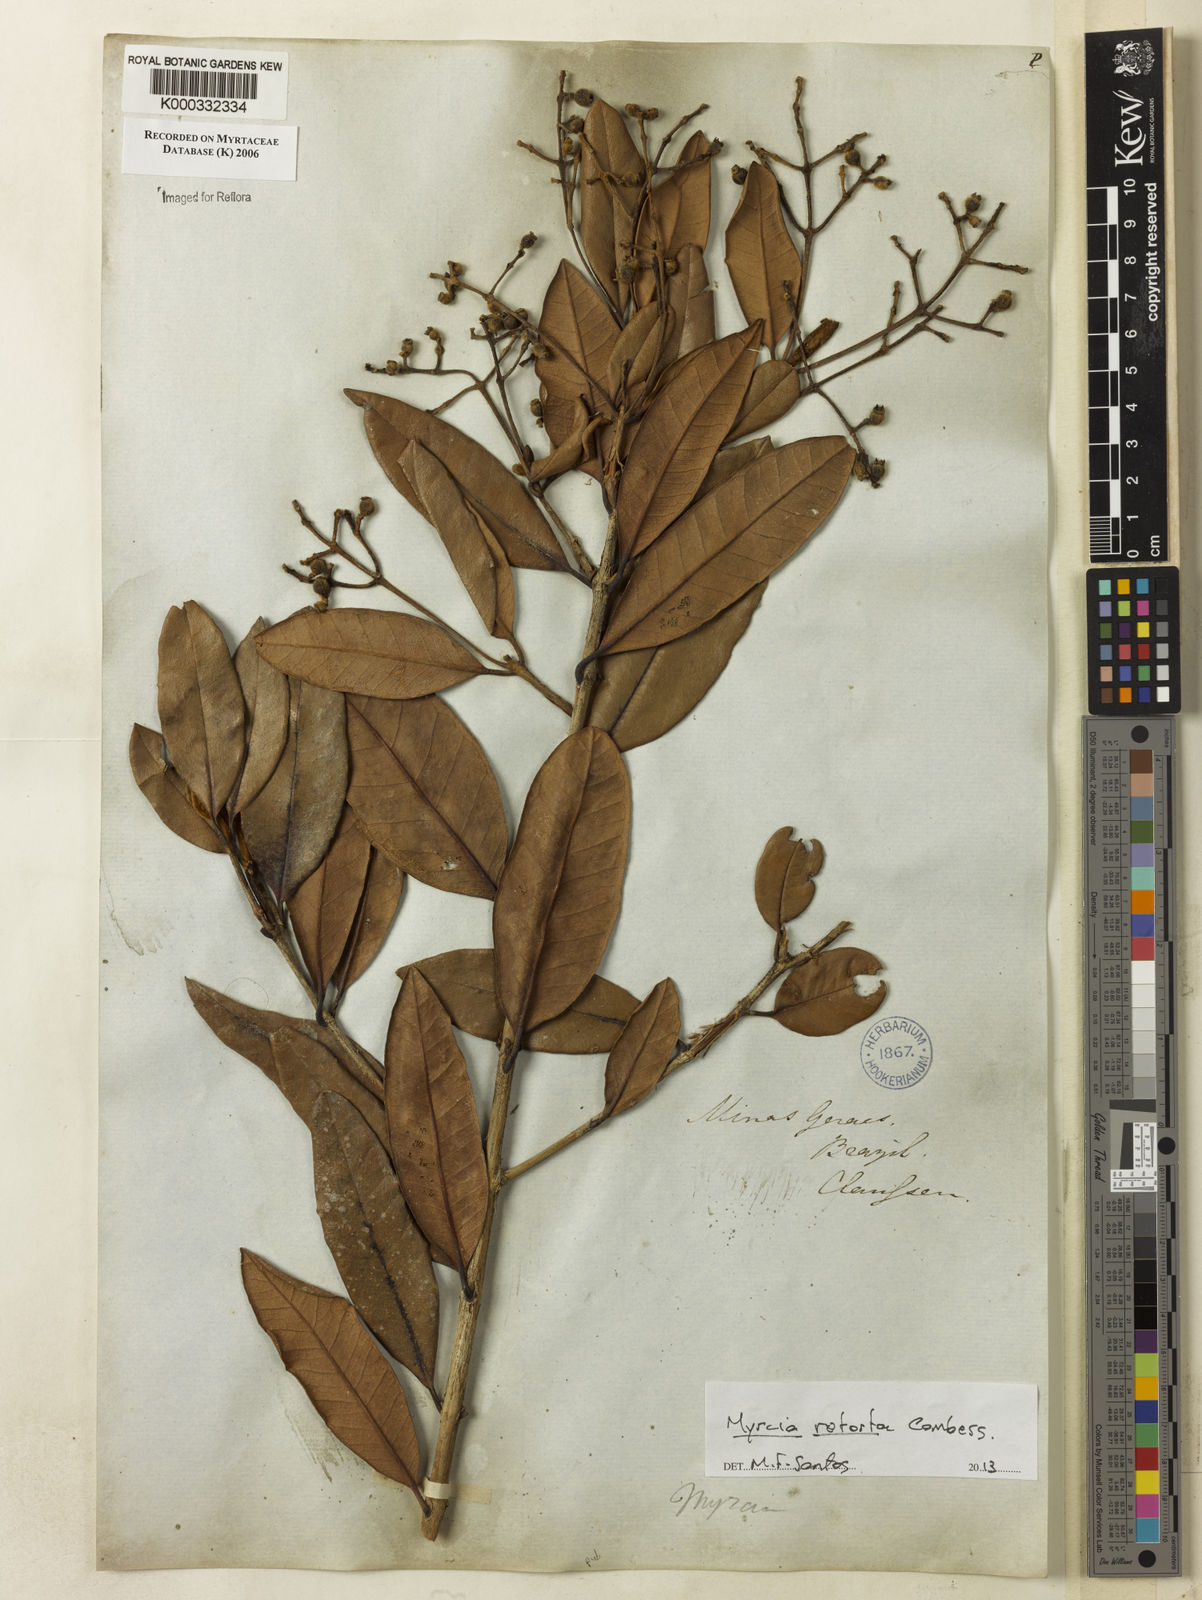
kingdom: Plantae
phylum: Tracheophyta
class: Magnoliopsida
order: Myrtales
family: Myrtaceae
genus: Myrcia
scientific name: Myrcia retorta
